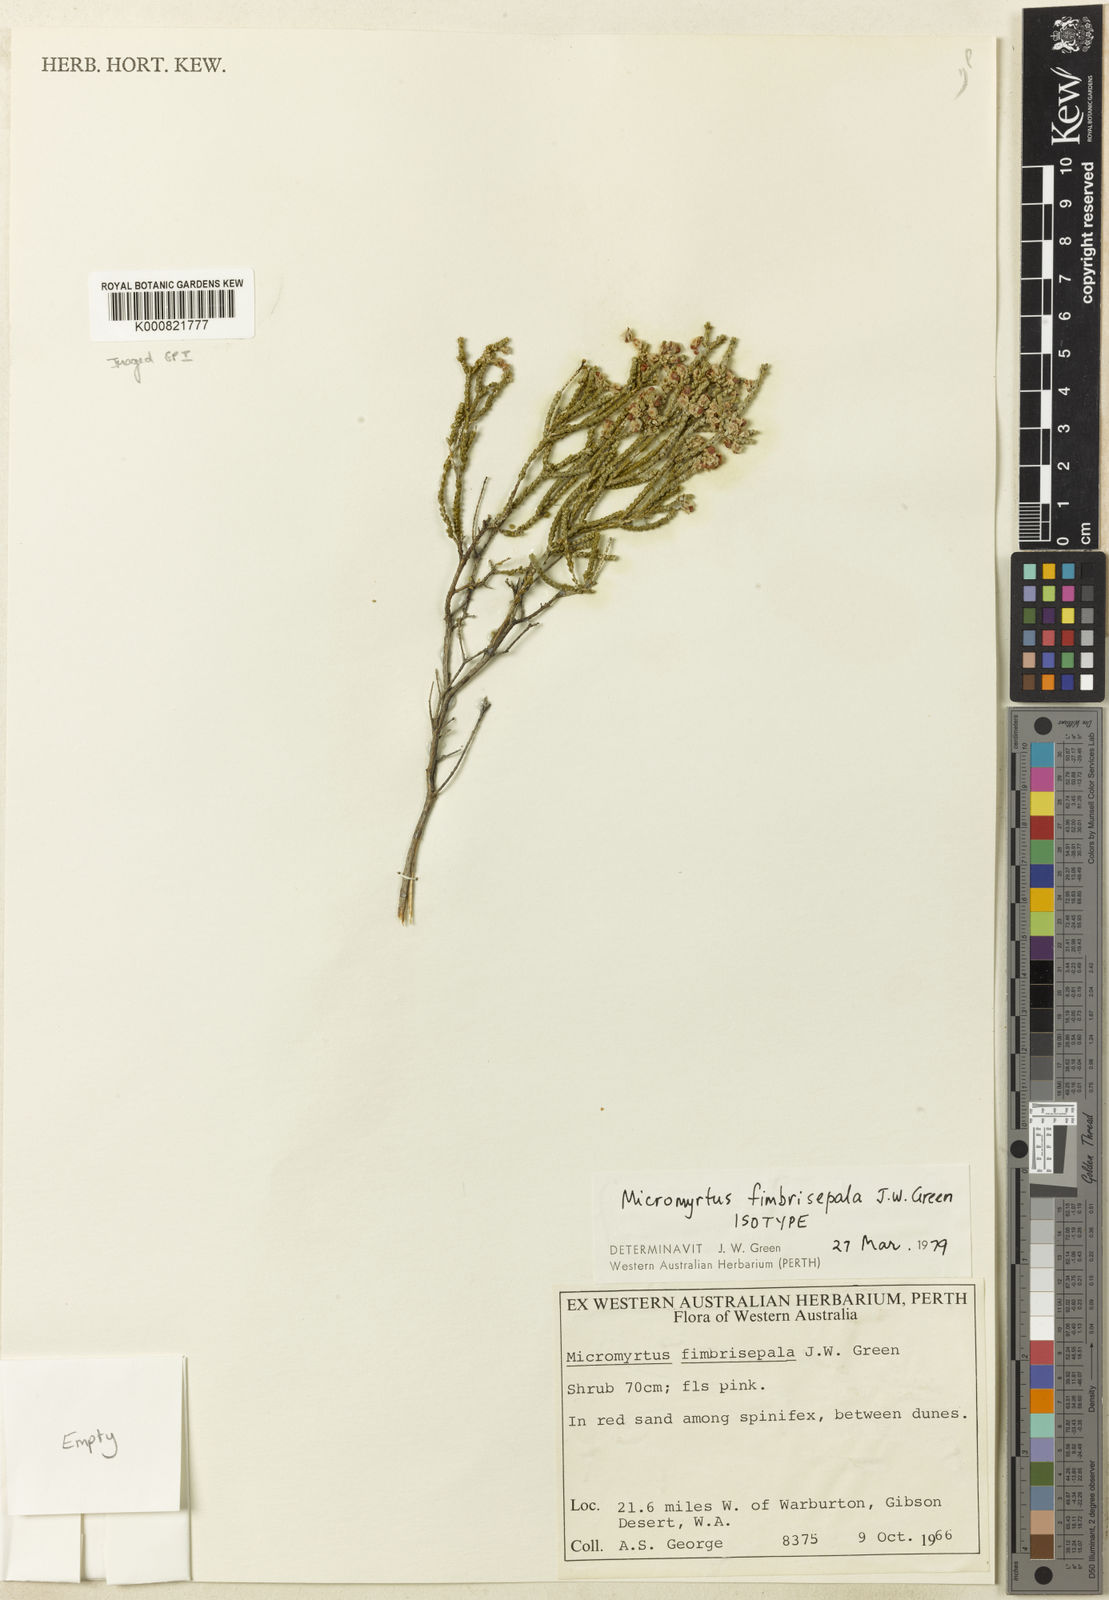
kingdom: Plantae
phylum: Tracheophyta
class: Magnoliopsida
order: Myrtales
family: Myrtaceae
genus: Micromyrtus
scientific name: Micromyrtus fimbrisepala
